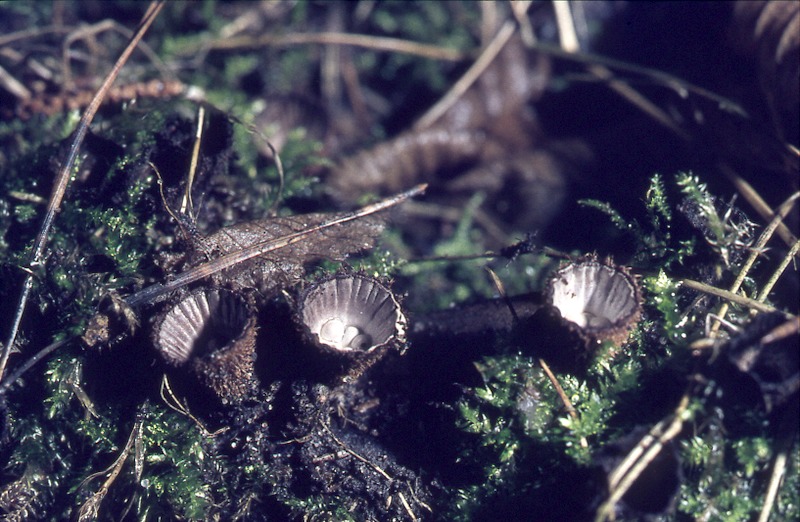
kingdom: Fungi
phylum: Basidiomycota
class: Agaricomycetes
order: Agaricales
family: Agaricaceae
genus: Cyathus
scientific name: Cyathus striatus
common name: Fluted bird's nest
